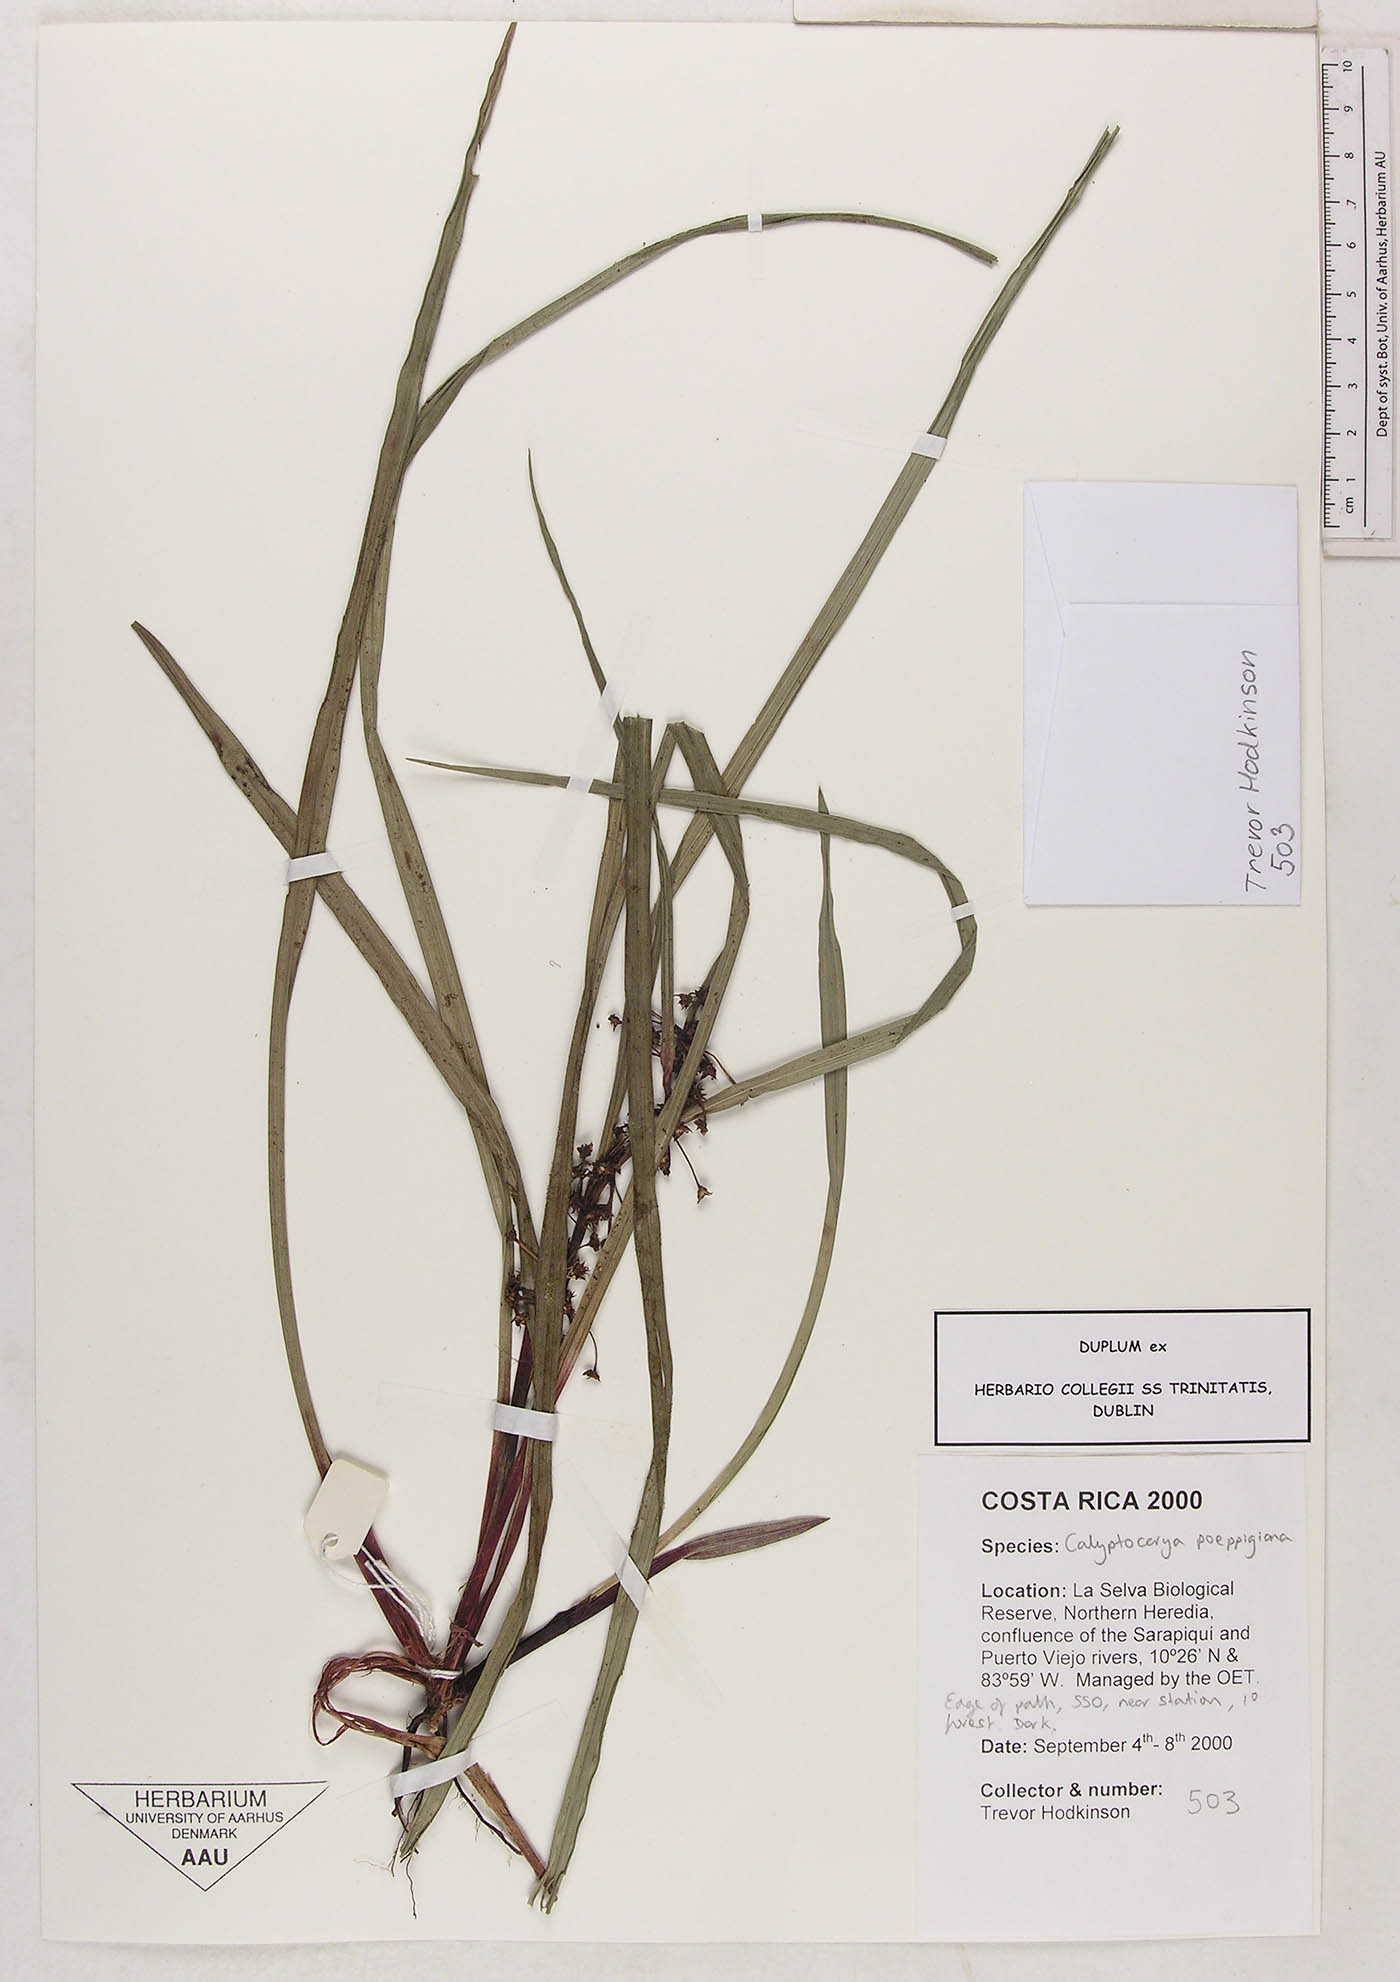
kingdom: Plantae
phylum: Tracheophyta
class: Liliopsida
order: Poales
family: Cyperaceae
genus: Calyptrocarya
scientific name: Calyptrocarya poeppigiana
